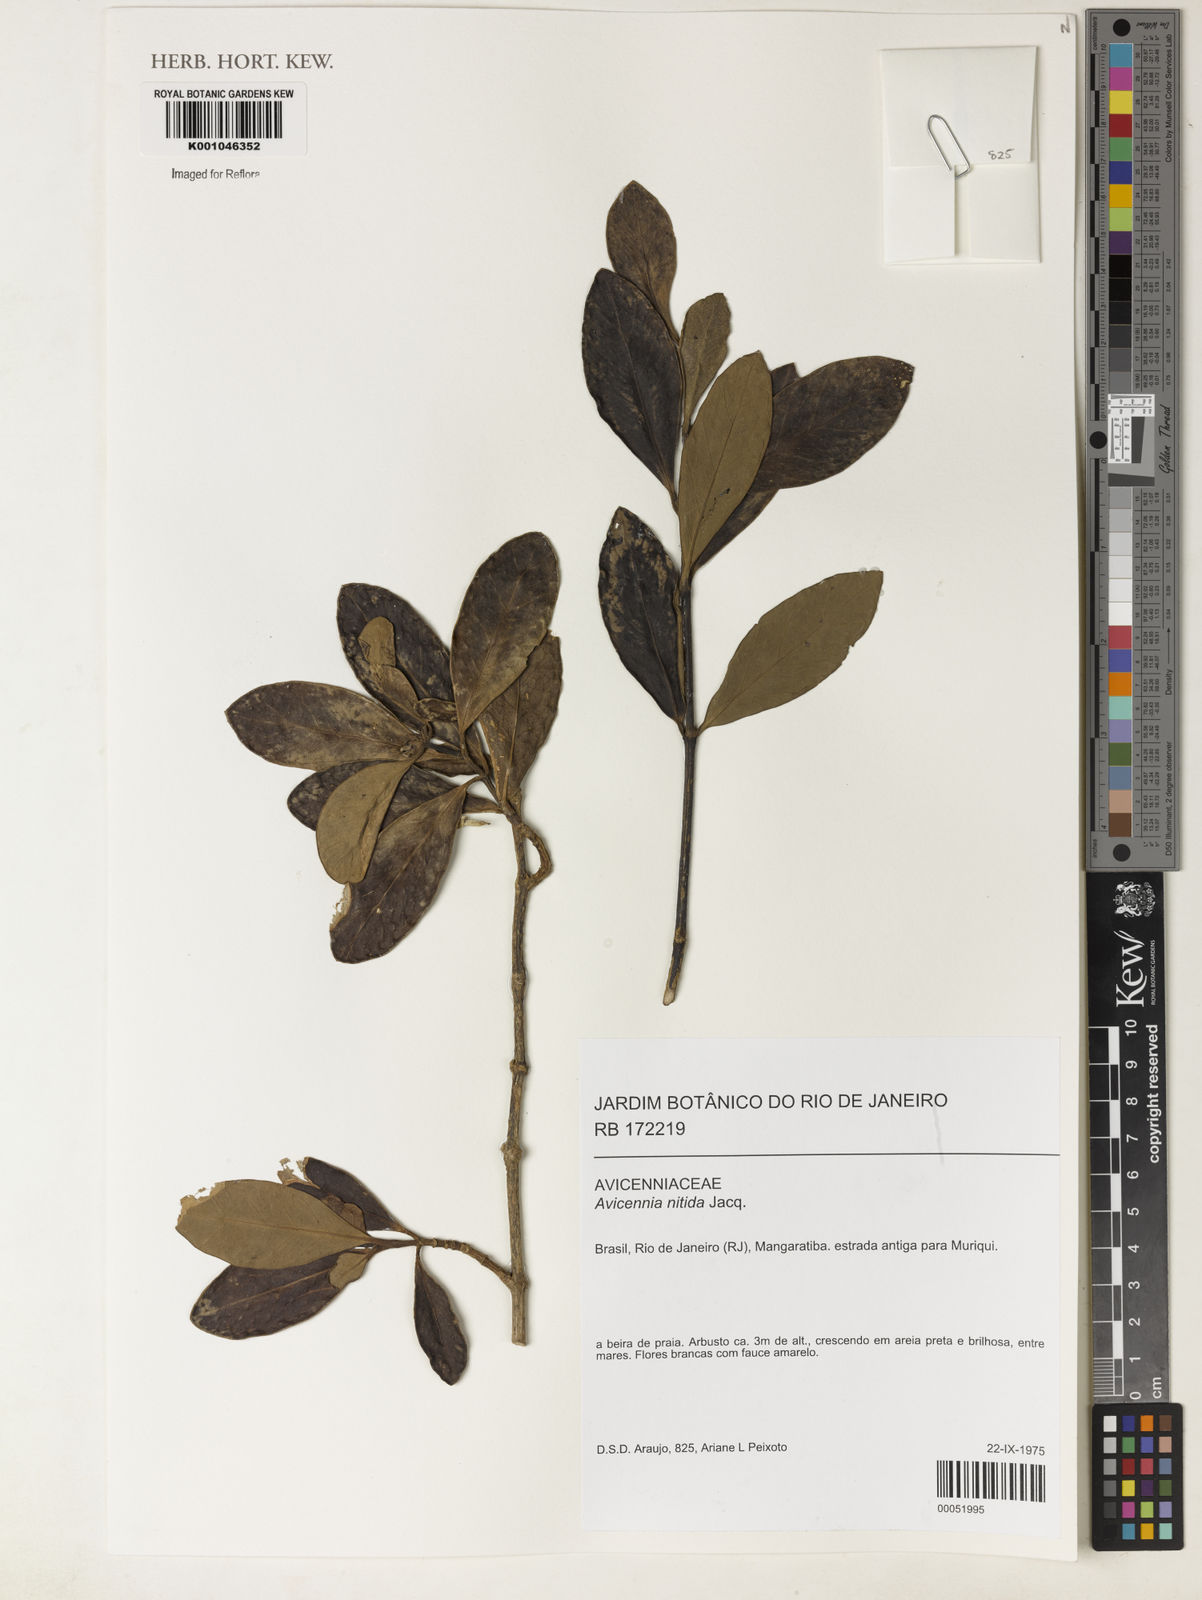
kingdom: Plantae
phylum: Tracheophyta
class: Magnoliopsida
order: Lamiales
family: Acanthaceae
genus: Avicennia
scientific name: Avicennia germinans
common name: Black mangrove
